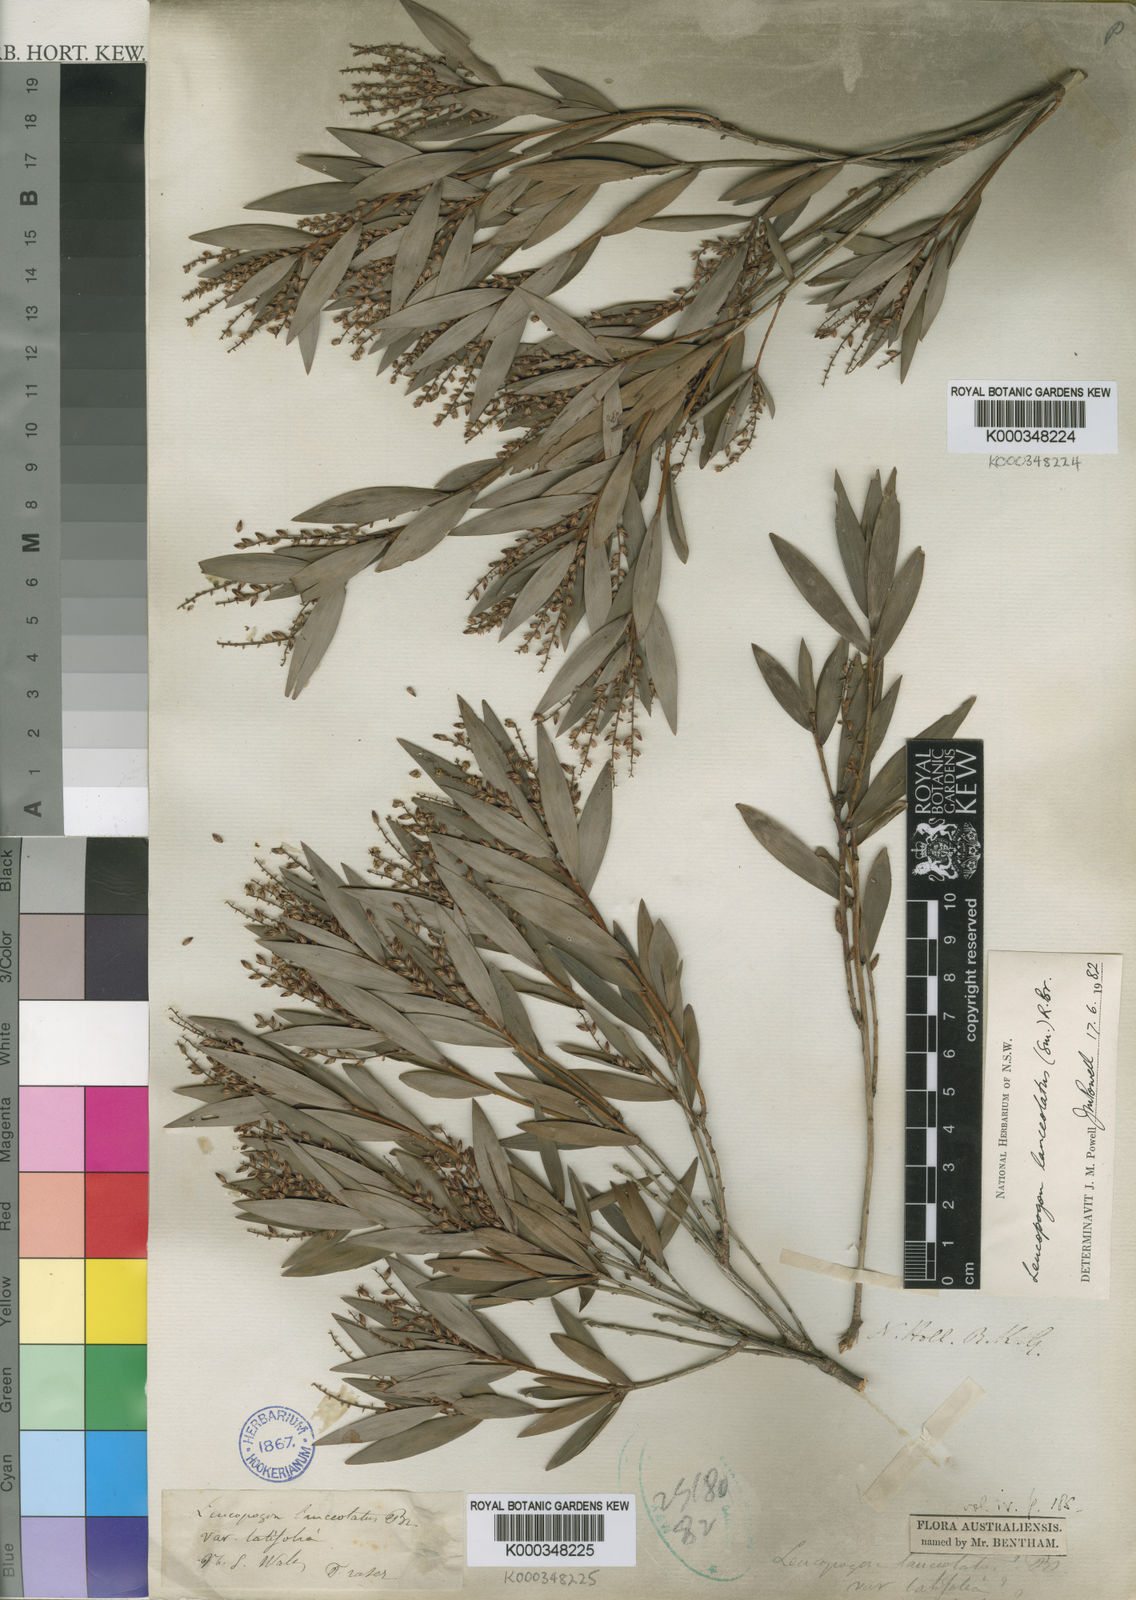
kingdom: Plantae
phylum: Tracheophyta
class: Magnoliopsida
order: Ericales
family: Ericaceae
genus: Leucopogon
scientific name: Leucopogon lanceolatus
